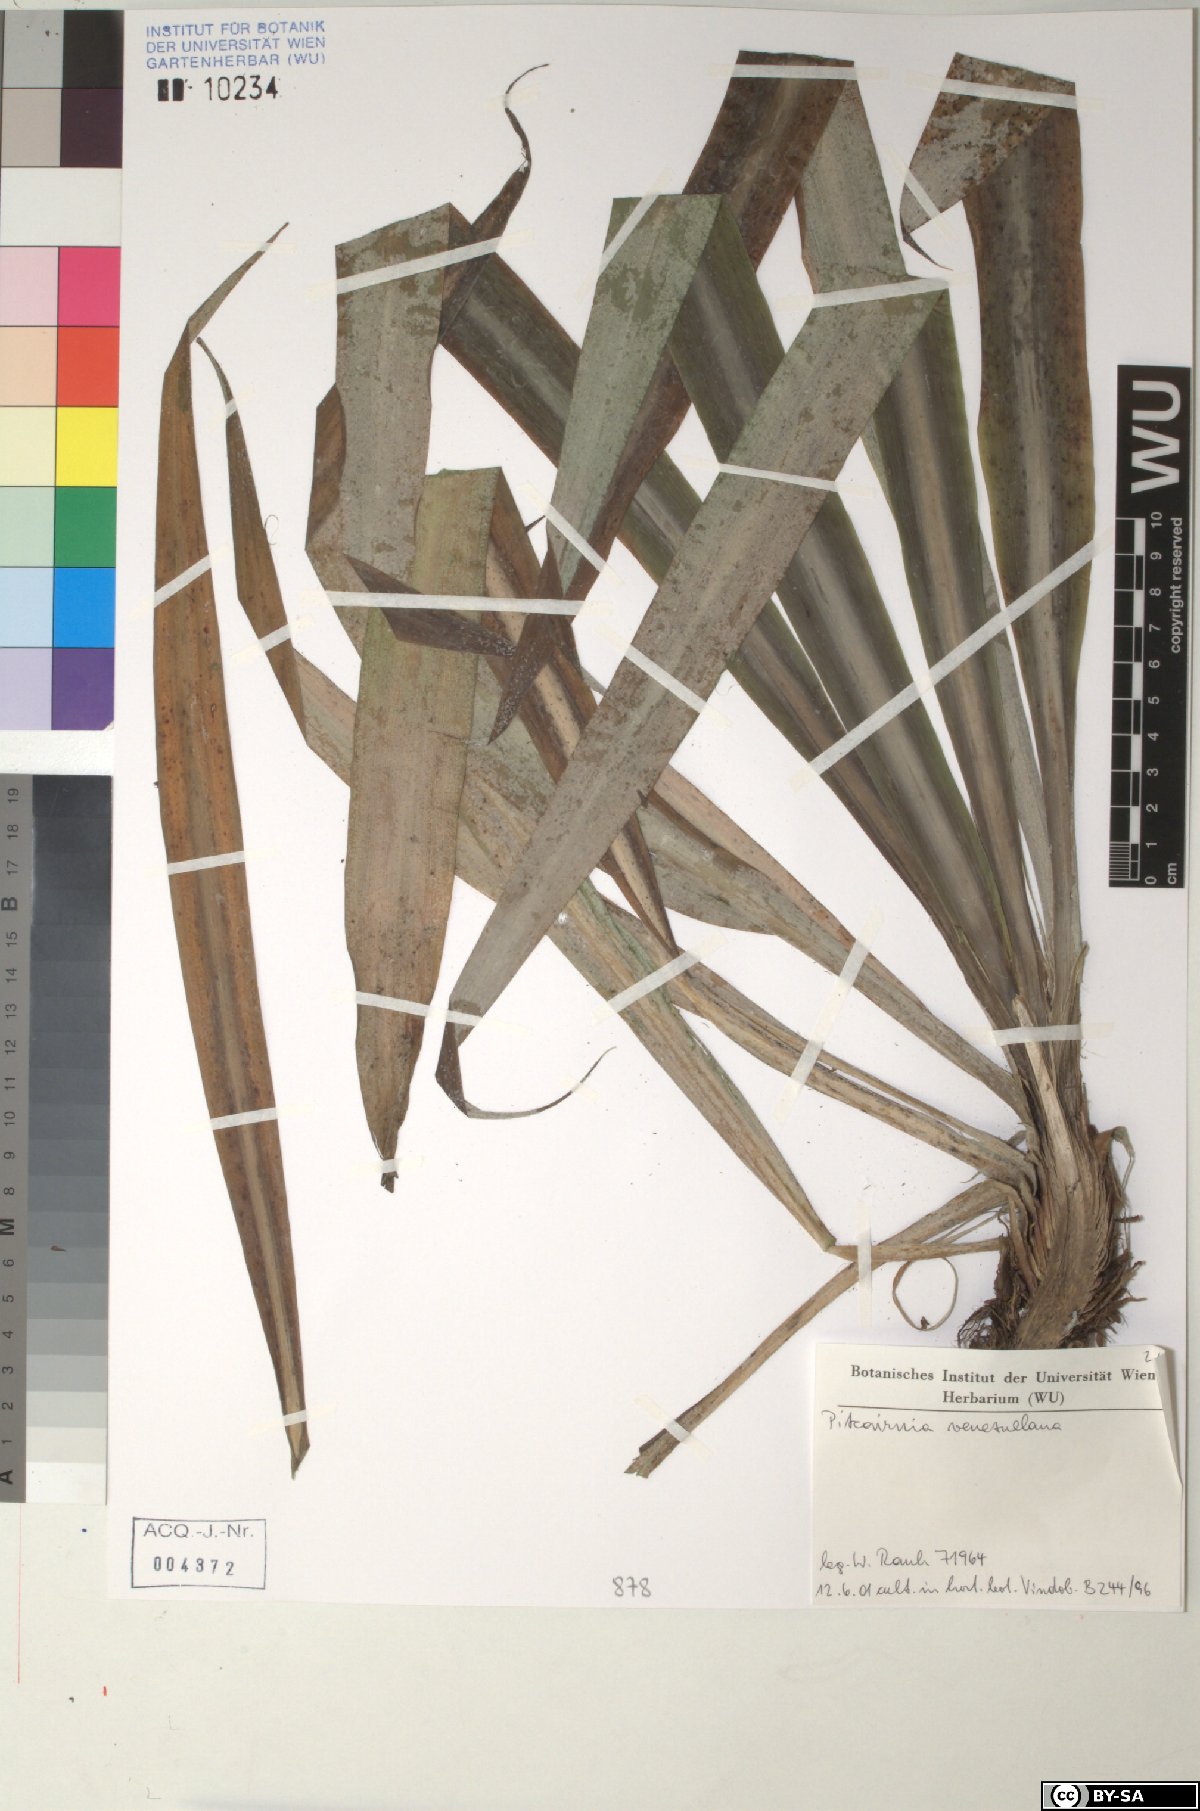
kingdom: Plantae
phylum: Tracheophyta
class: Liliopsida
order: Poales
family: Bromeliaceae
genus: Pitcairnia
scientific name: Pitcairnia venezuelana
